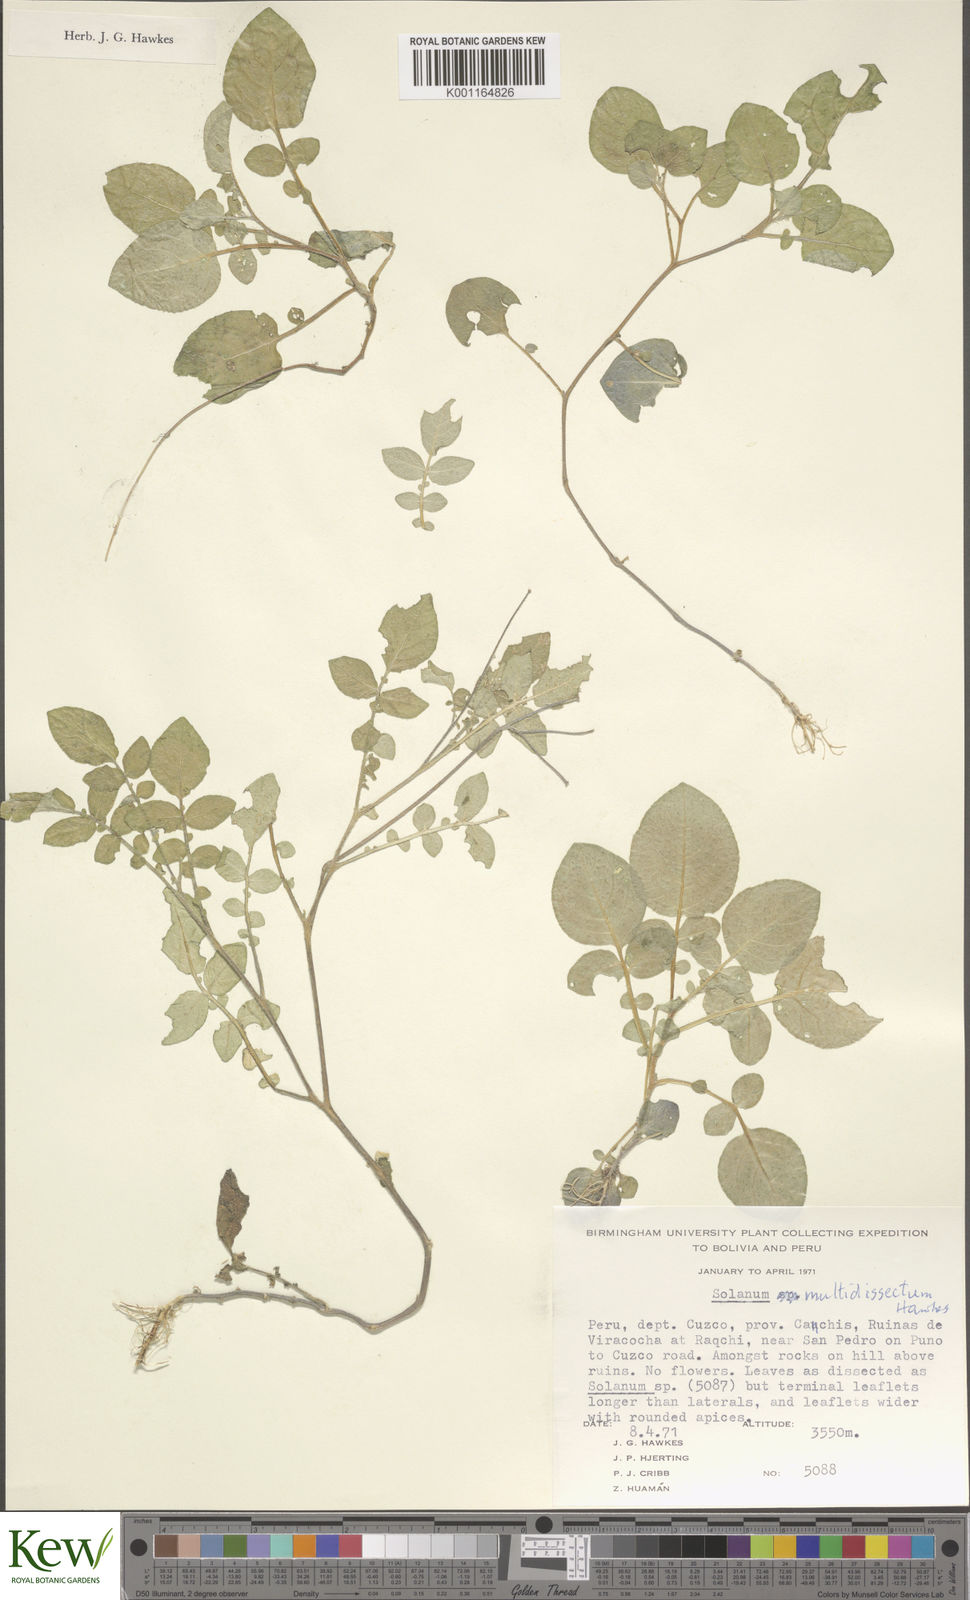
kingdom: Plantae
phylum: Tracheophyta
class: Magnoliopsida
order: Solanales
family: Solanaceae
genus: Solanum
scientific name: Solanum candolleanum
